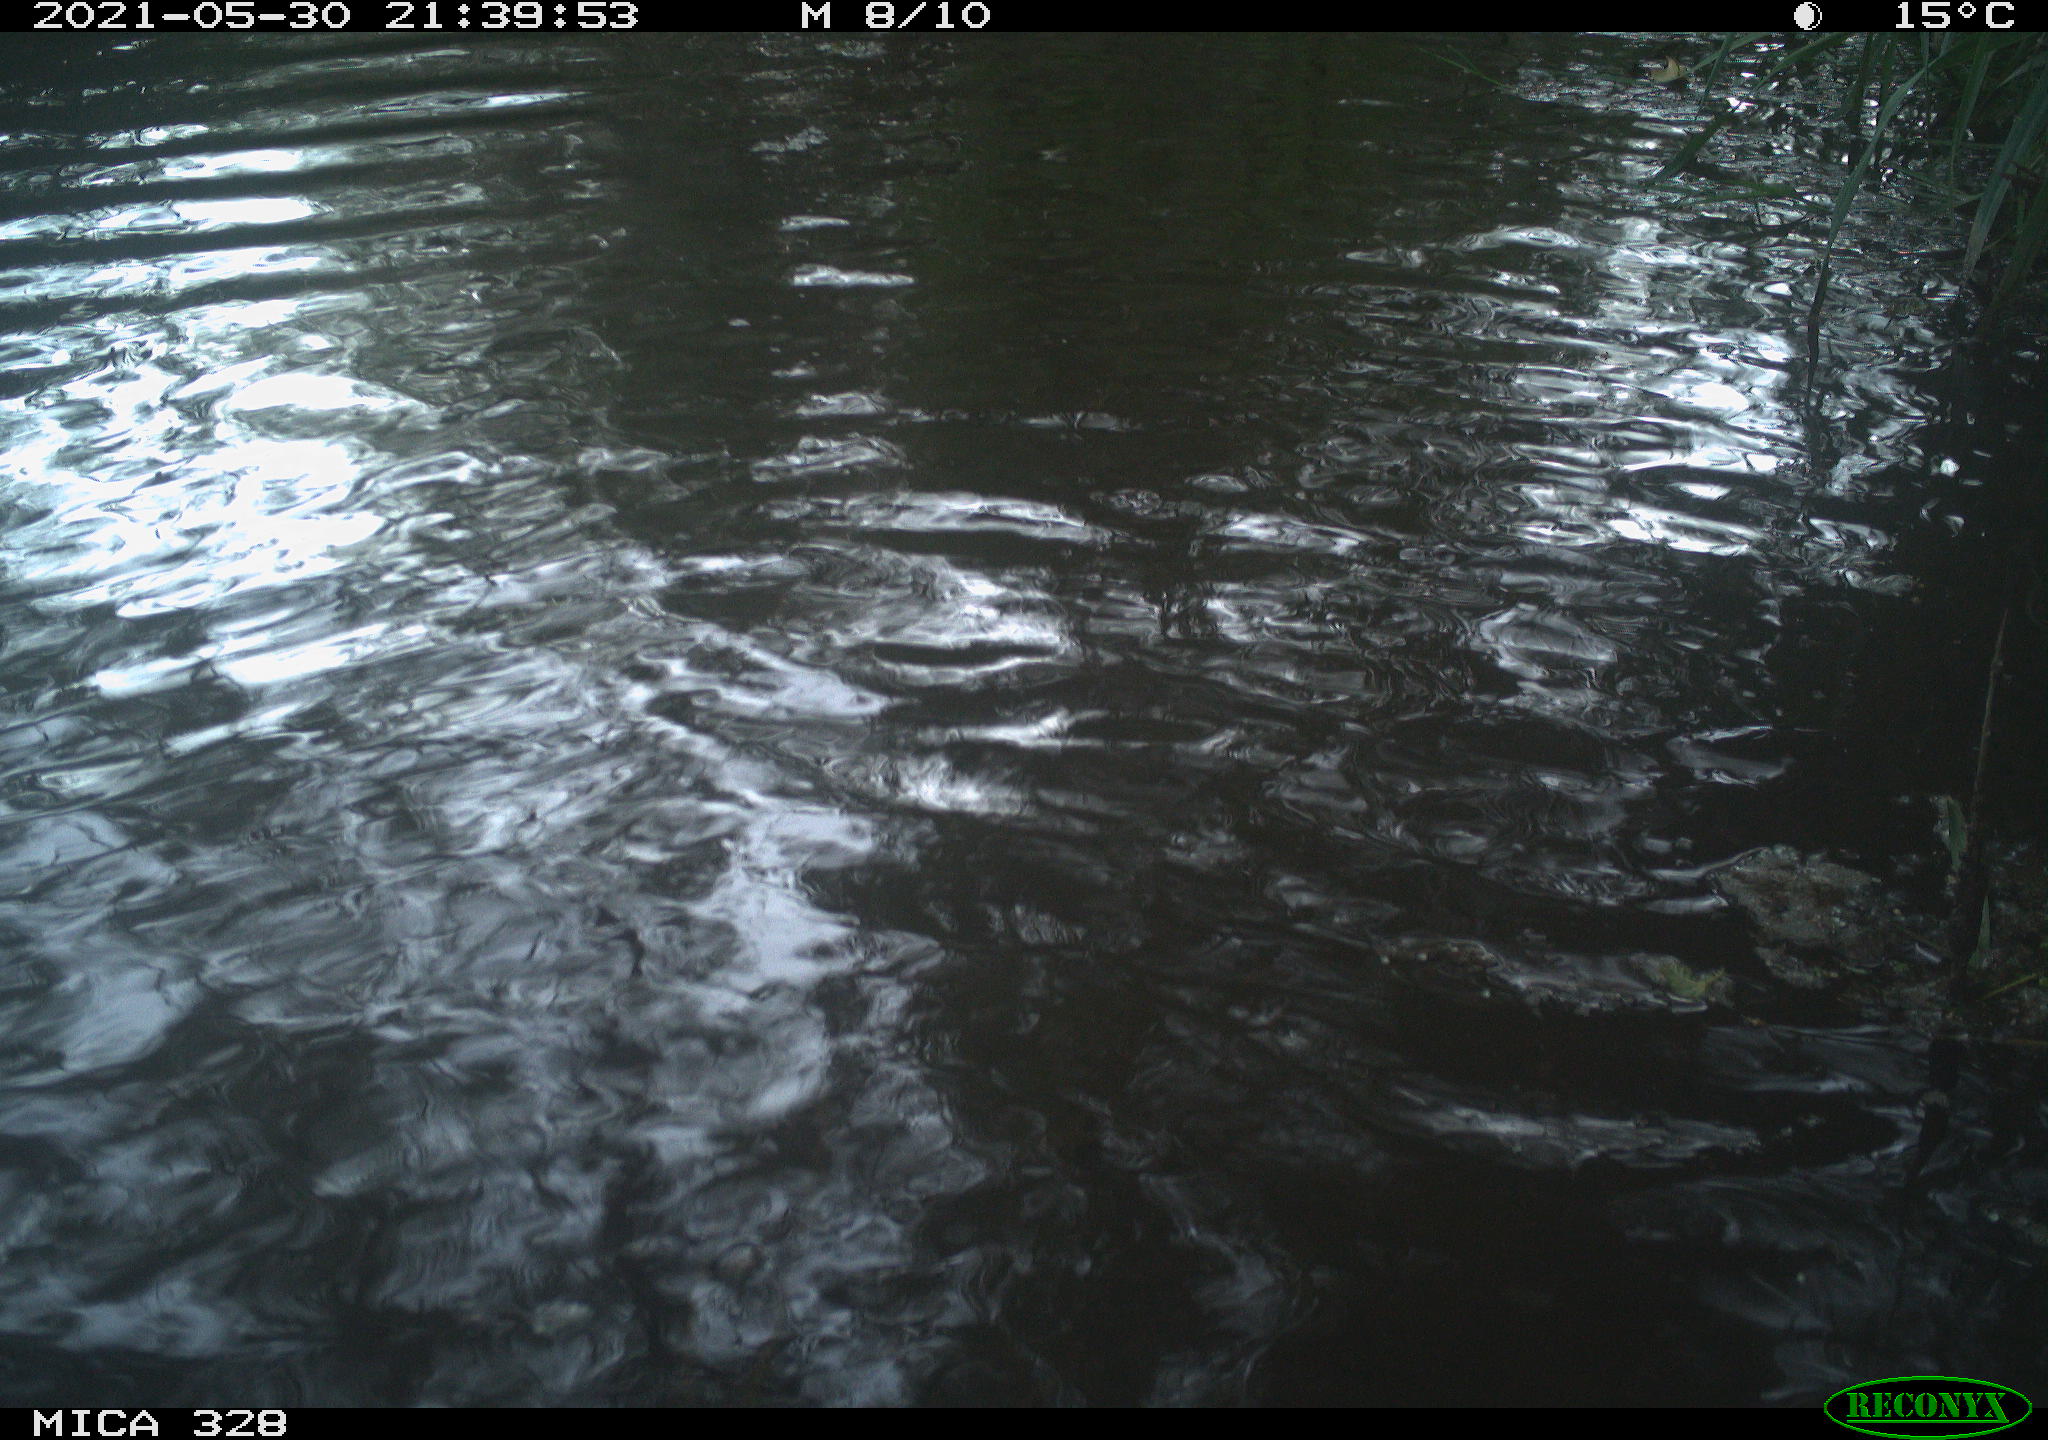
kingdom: Animalia
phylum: Chordata
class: Mammalia
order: Rodentia
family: Cricetidae
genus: Ondatra
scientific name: Ondatra zibethicus
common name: Muskrat
